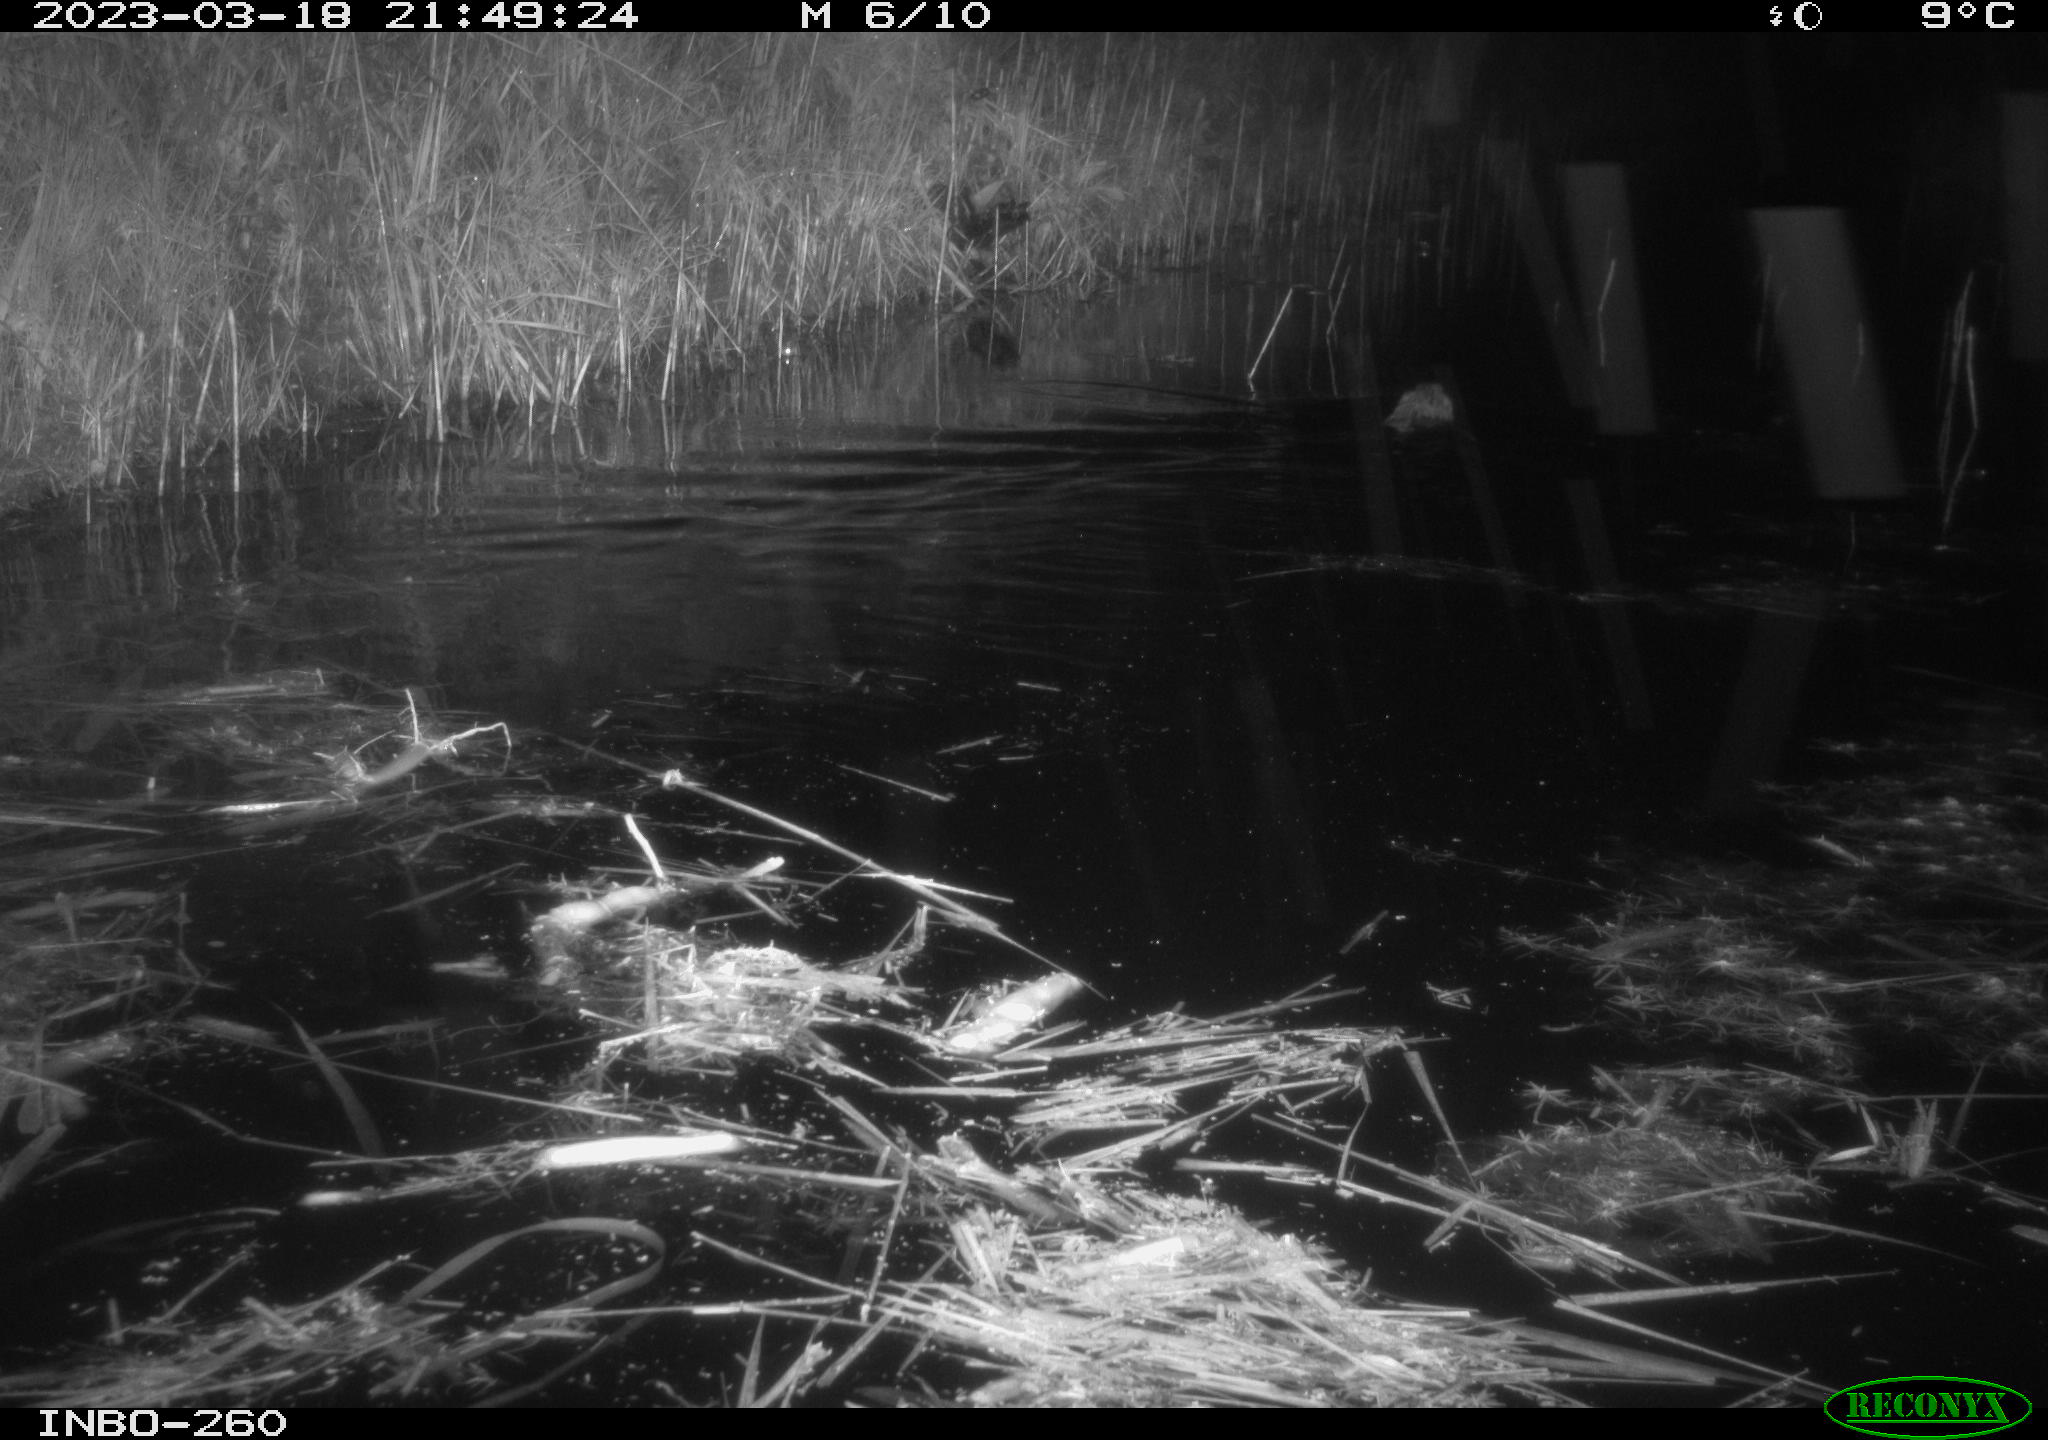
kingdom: Animalia
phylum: Chordata
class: Mammalia
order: Rodentia
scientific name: Rodentia
